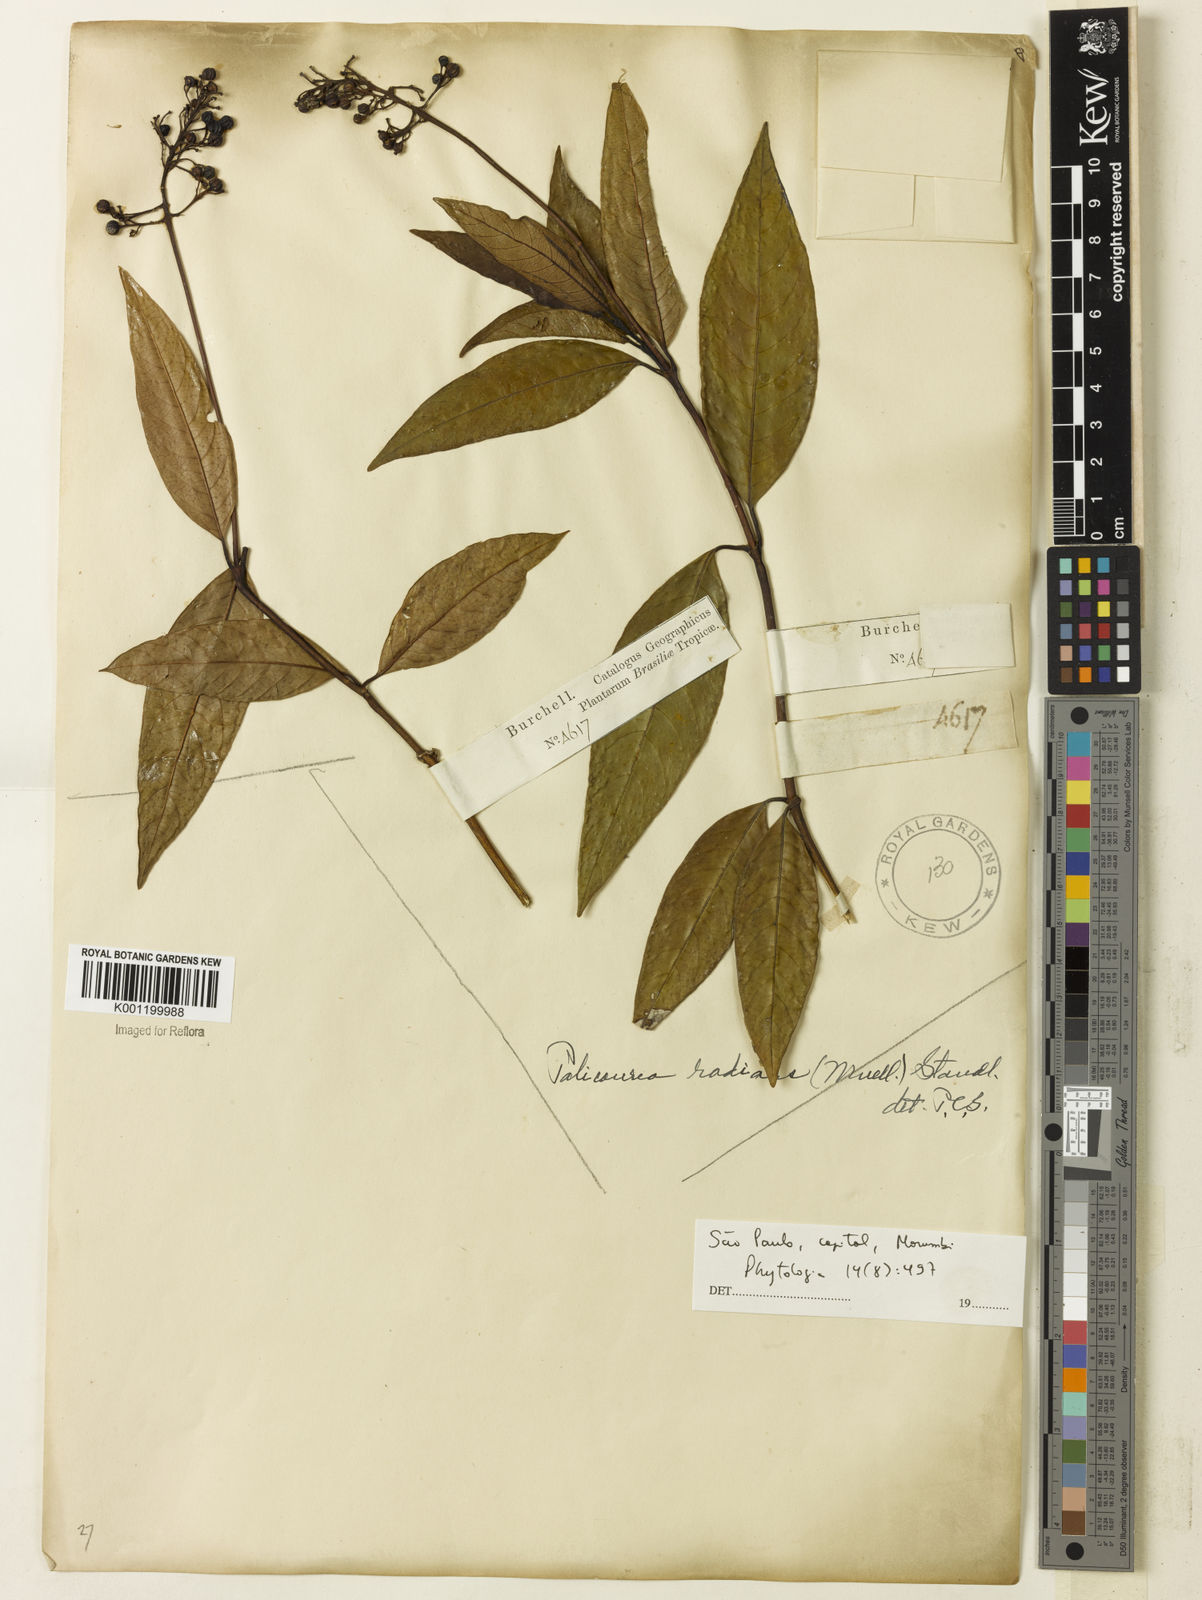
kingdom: Plantae
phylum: Tracheophyta
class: Magnoliopsida
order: Gentianales
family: Rubiaceae
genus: Palicourea
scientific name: Palicourea
